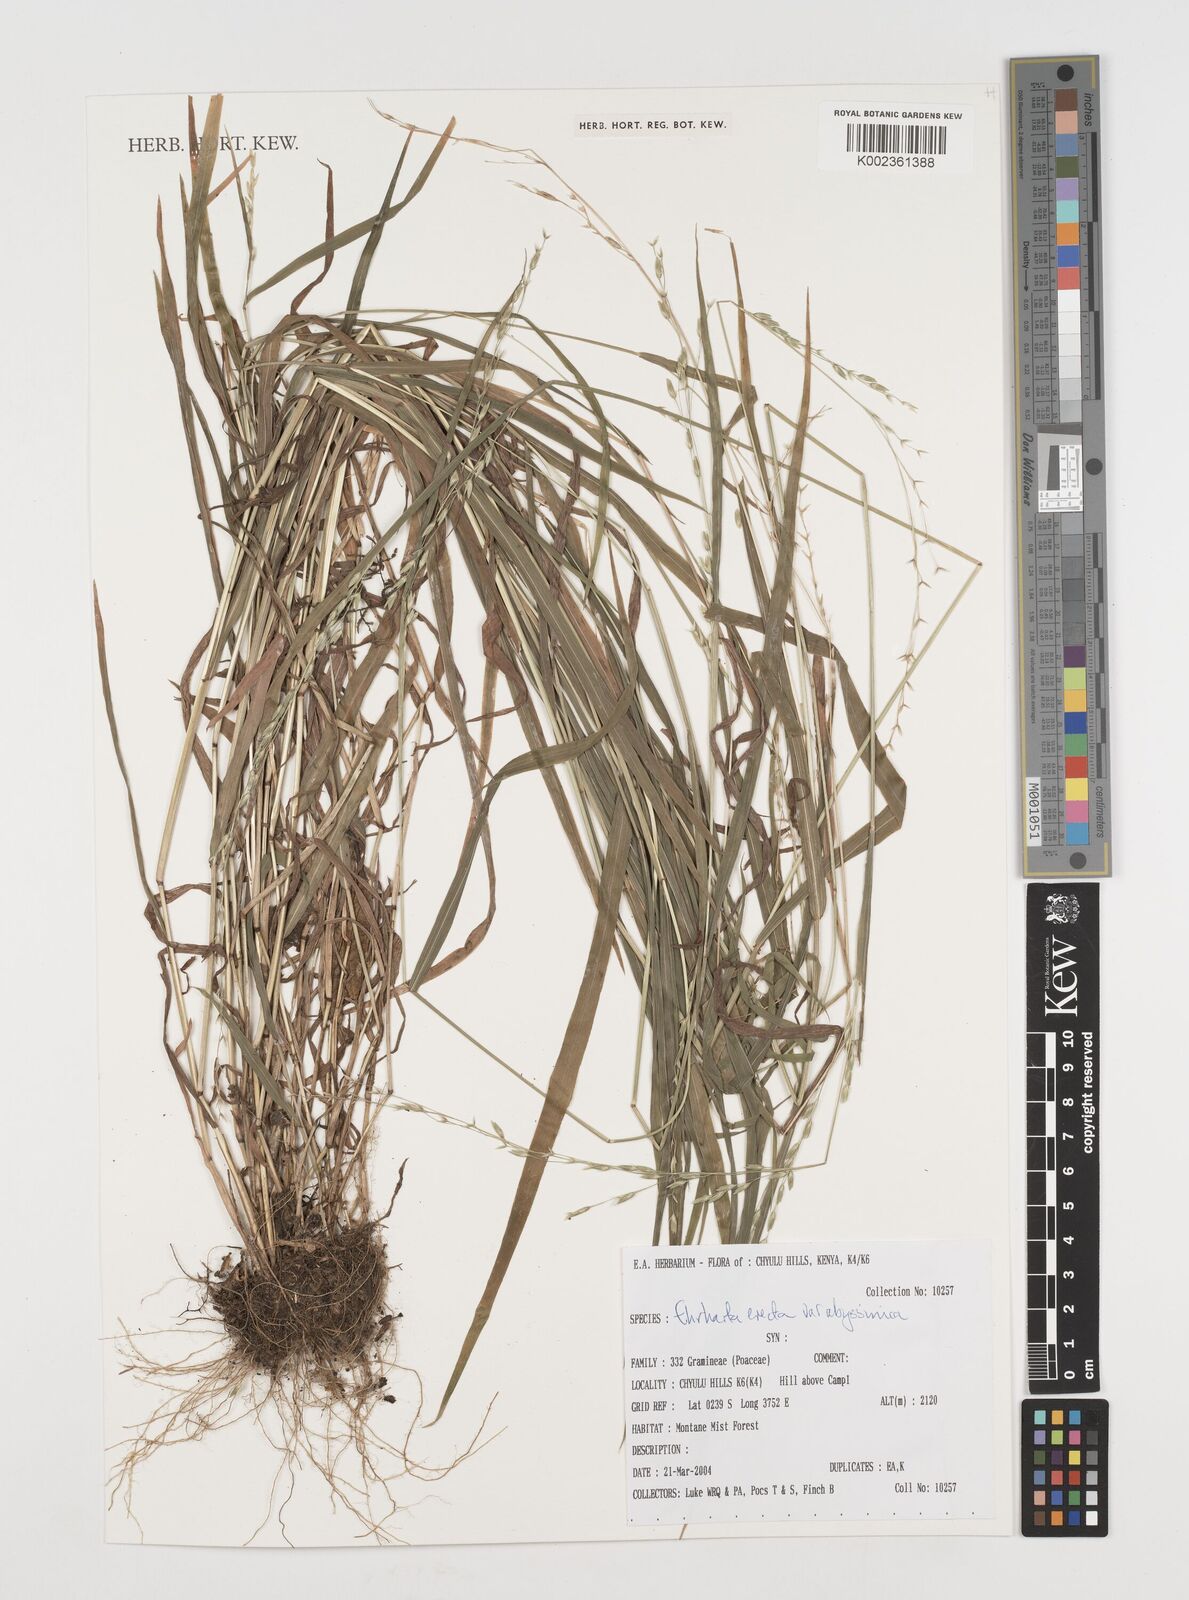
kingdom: Plantae
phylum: Tracheophyta
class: Liliopsida
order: Poales
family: Poaceae
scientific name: Poaceae
